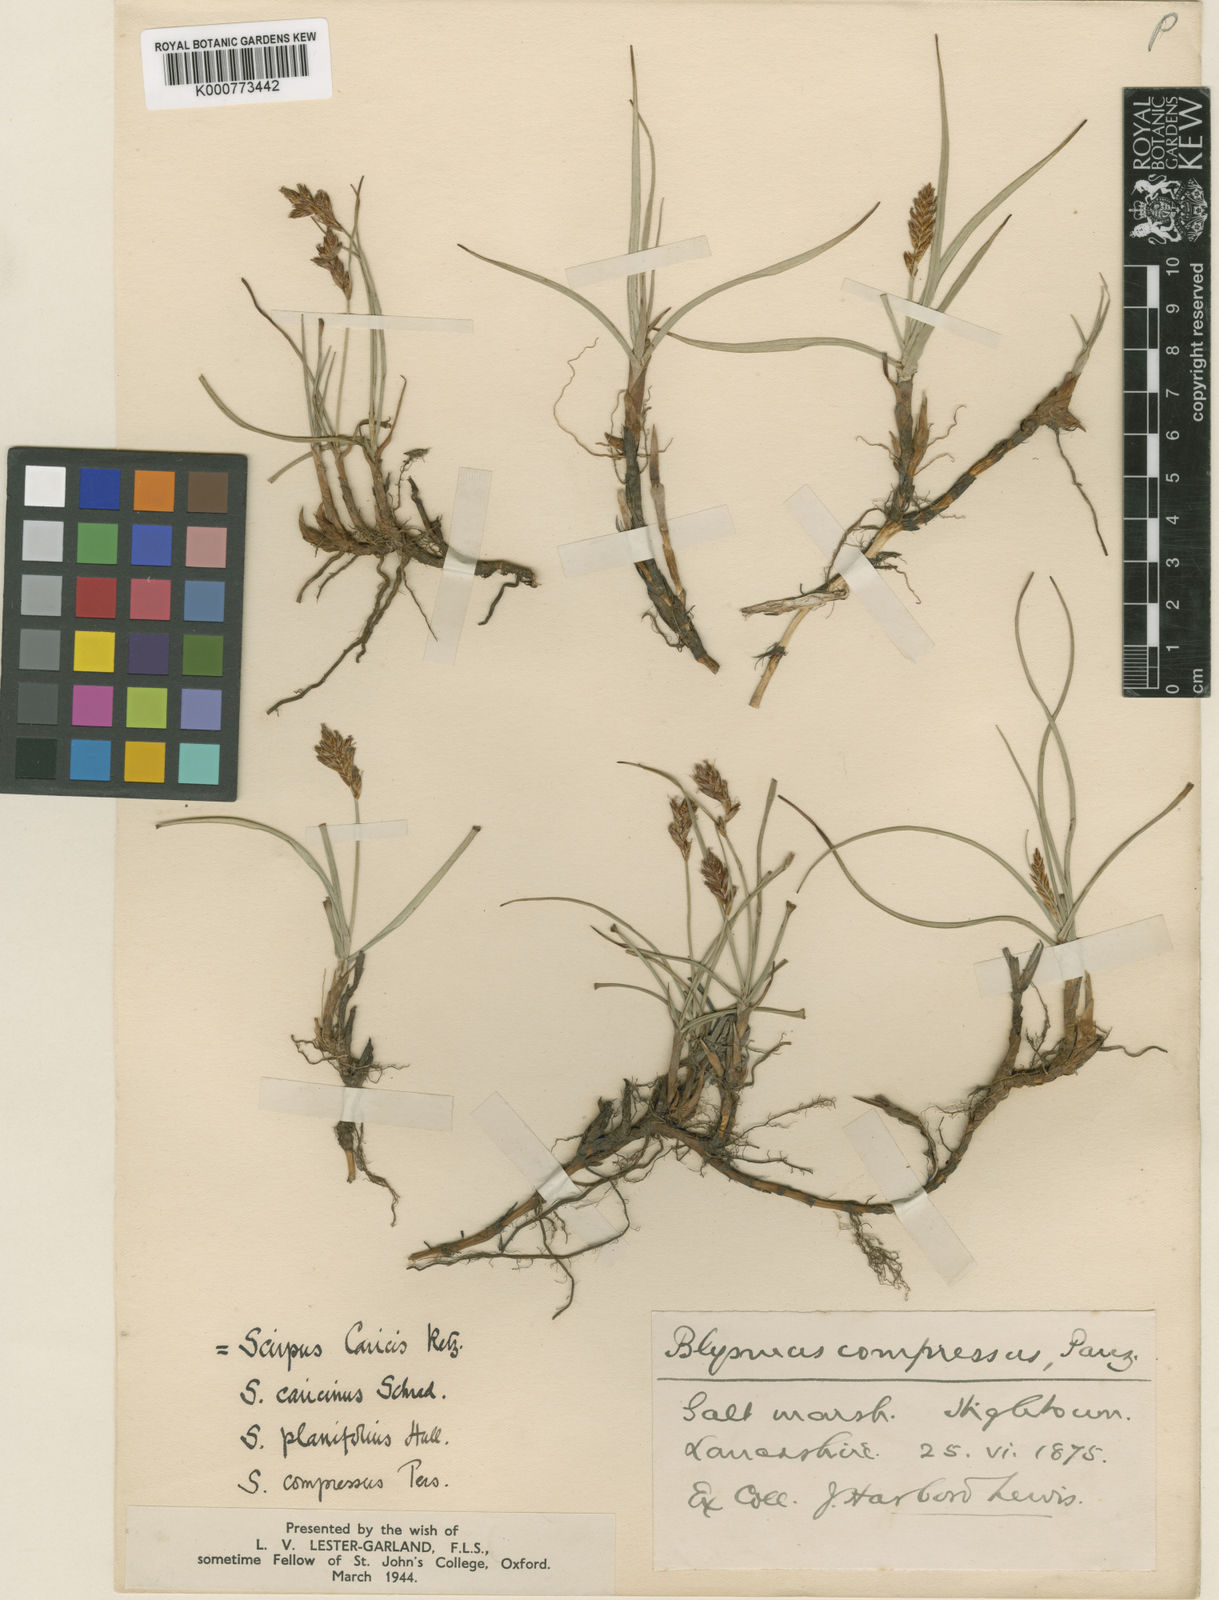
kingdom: Plantae
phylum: Tracheophyta
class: Liliopsida
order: Poales
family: Cyperaceae
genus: Blysmus
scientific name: Blysmus compressus
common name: Flat-sedge
